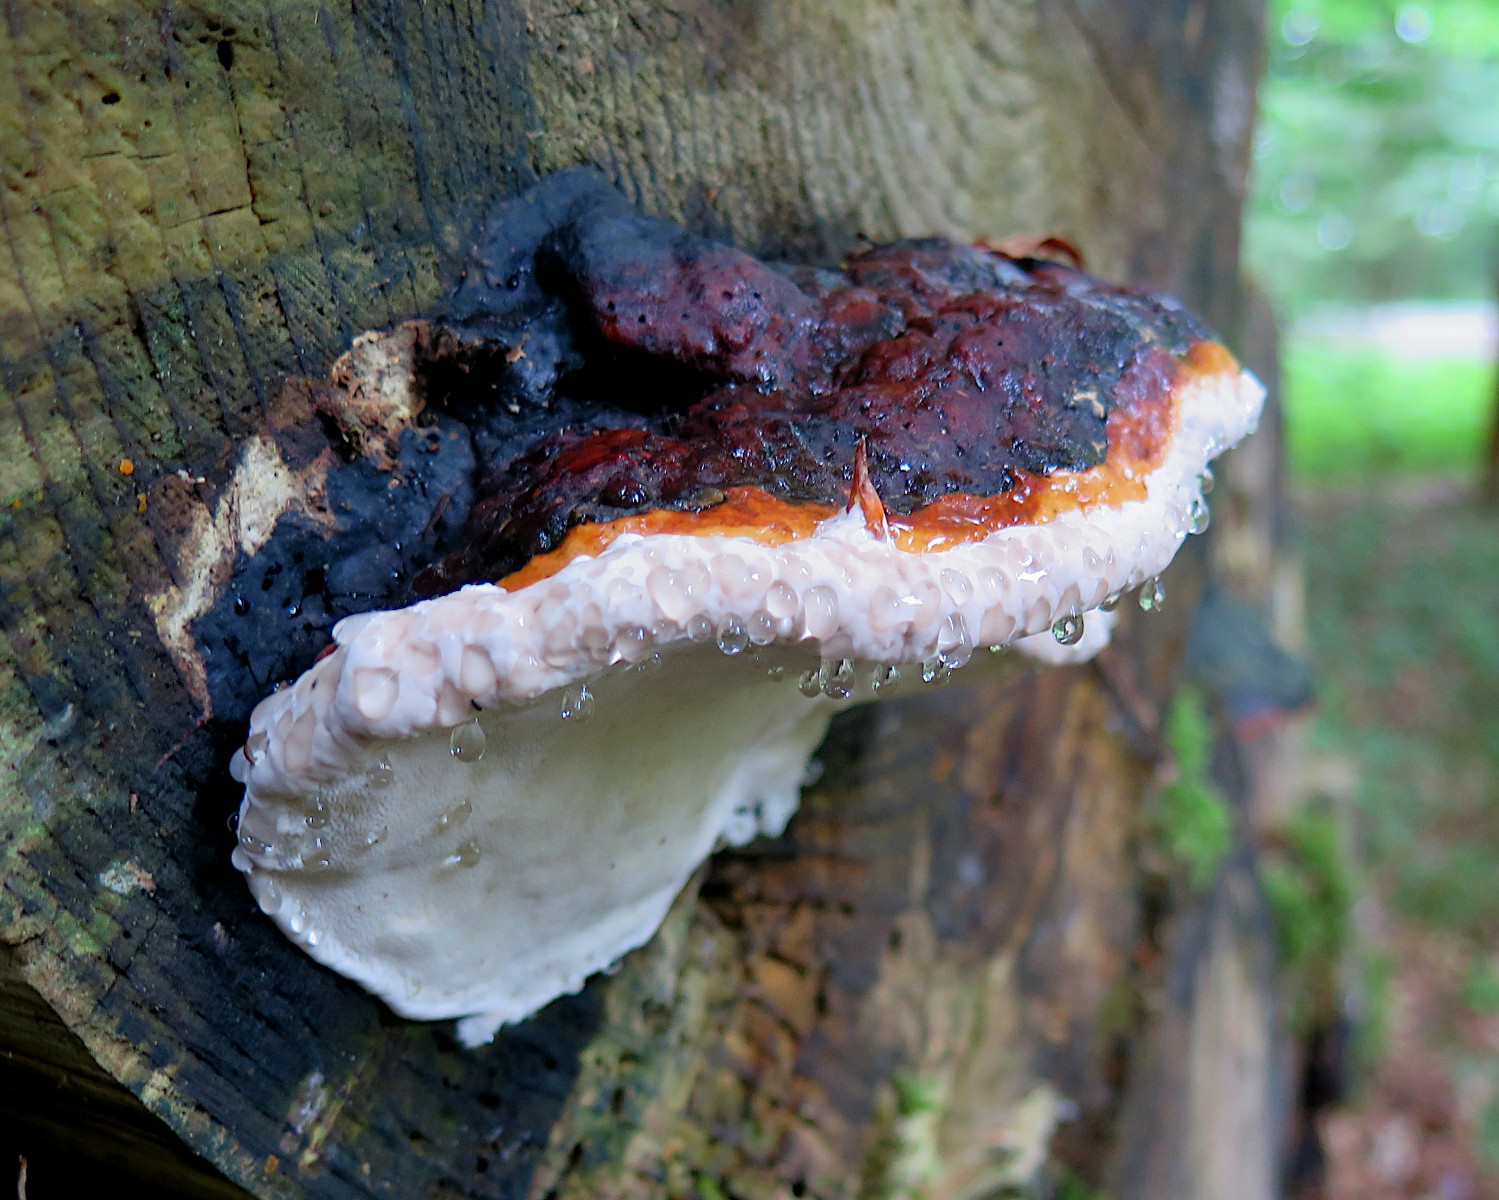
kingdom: Fungi
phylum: Basidiomycota
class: Agaricomycetes
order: Polyporales
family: Fomitopsidaceae
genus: Fomitopsis
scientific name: Fomitopsis pinicola
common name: randbæltet hovporesvamp
